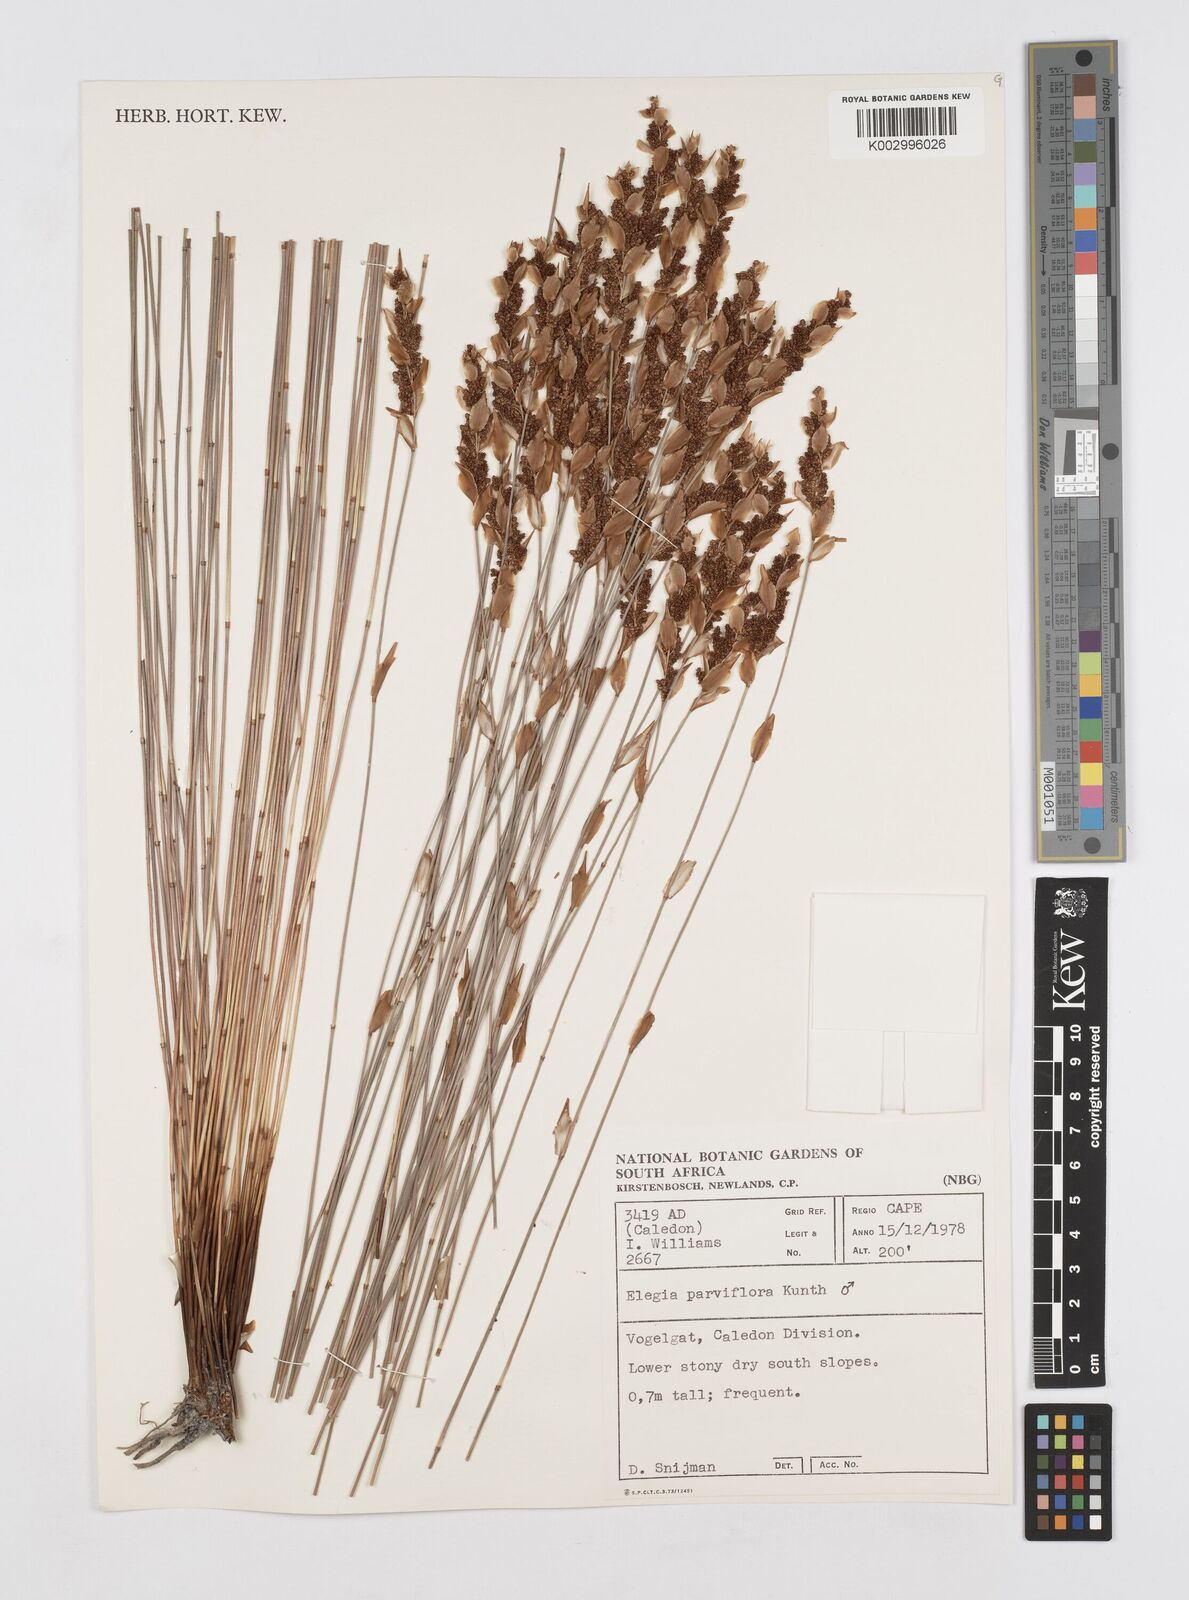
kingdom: Plantae
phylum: Tracheophyta
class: Liliopsida
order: Poales
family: Restionaceae
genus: Cannomois
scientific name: Cannomois parviflora
